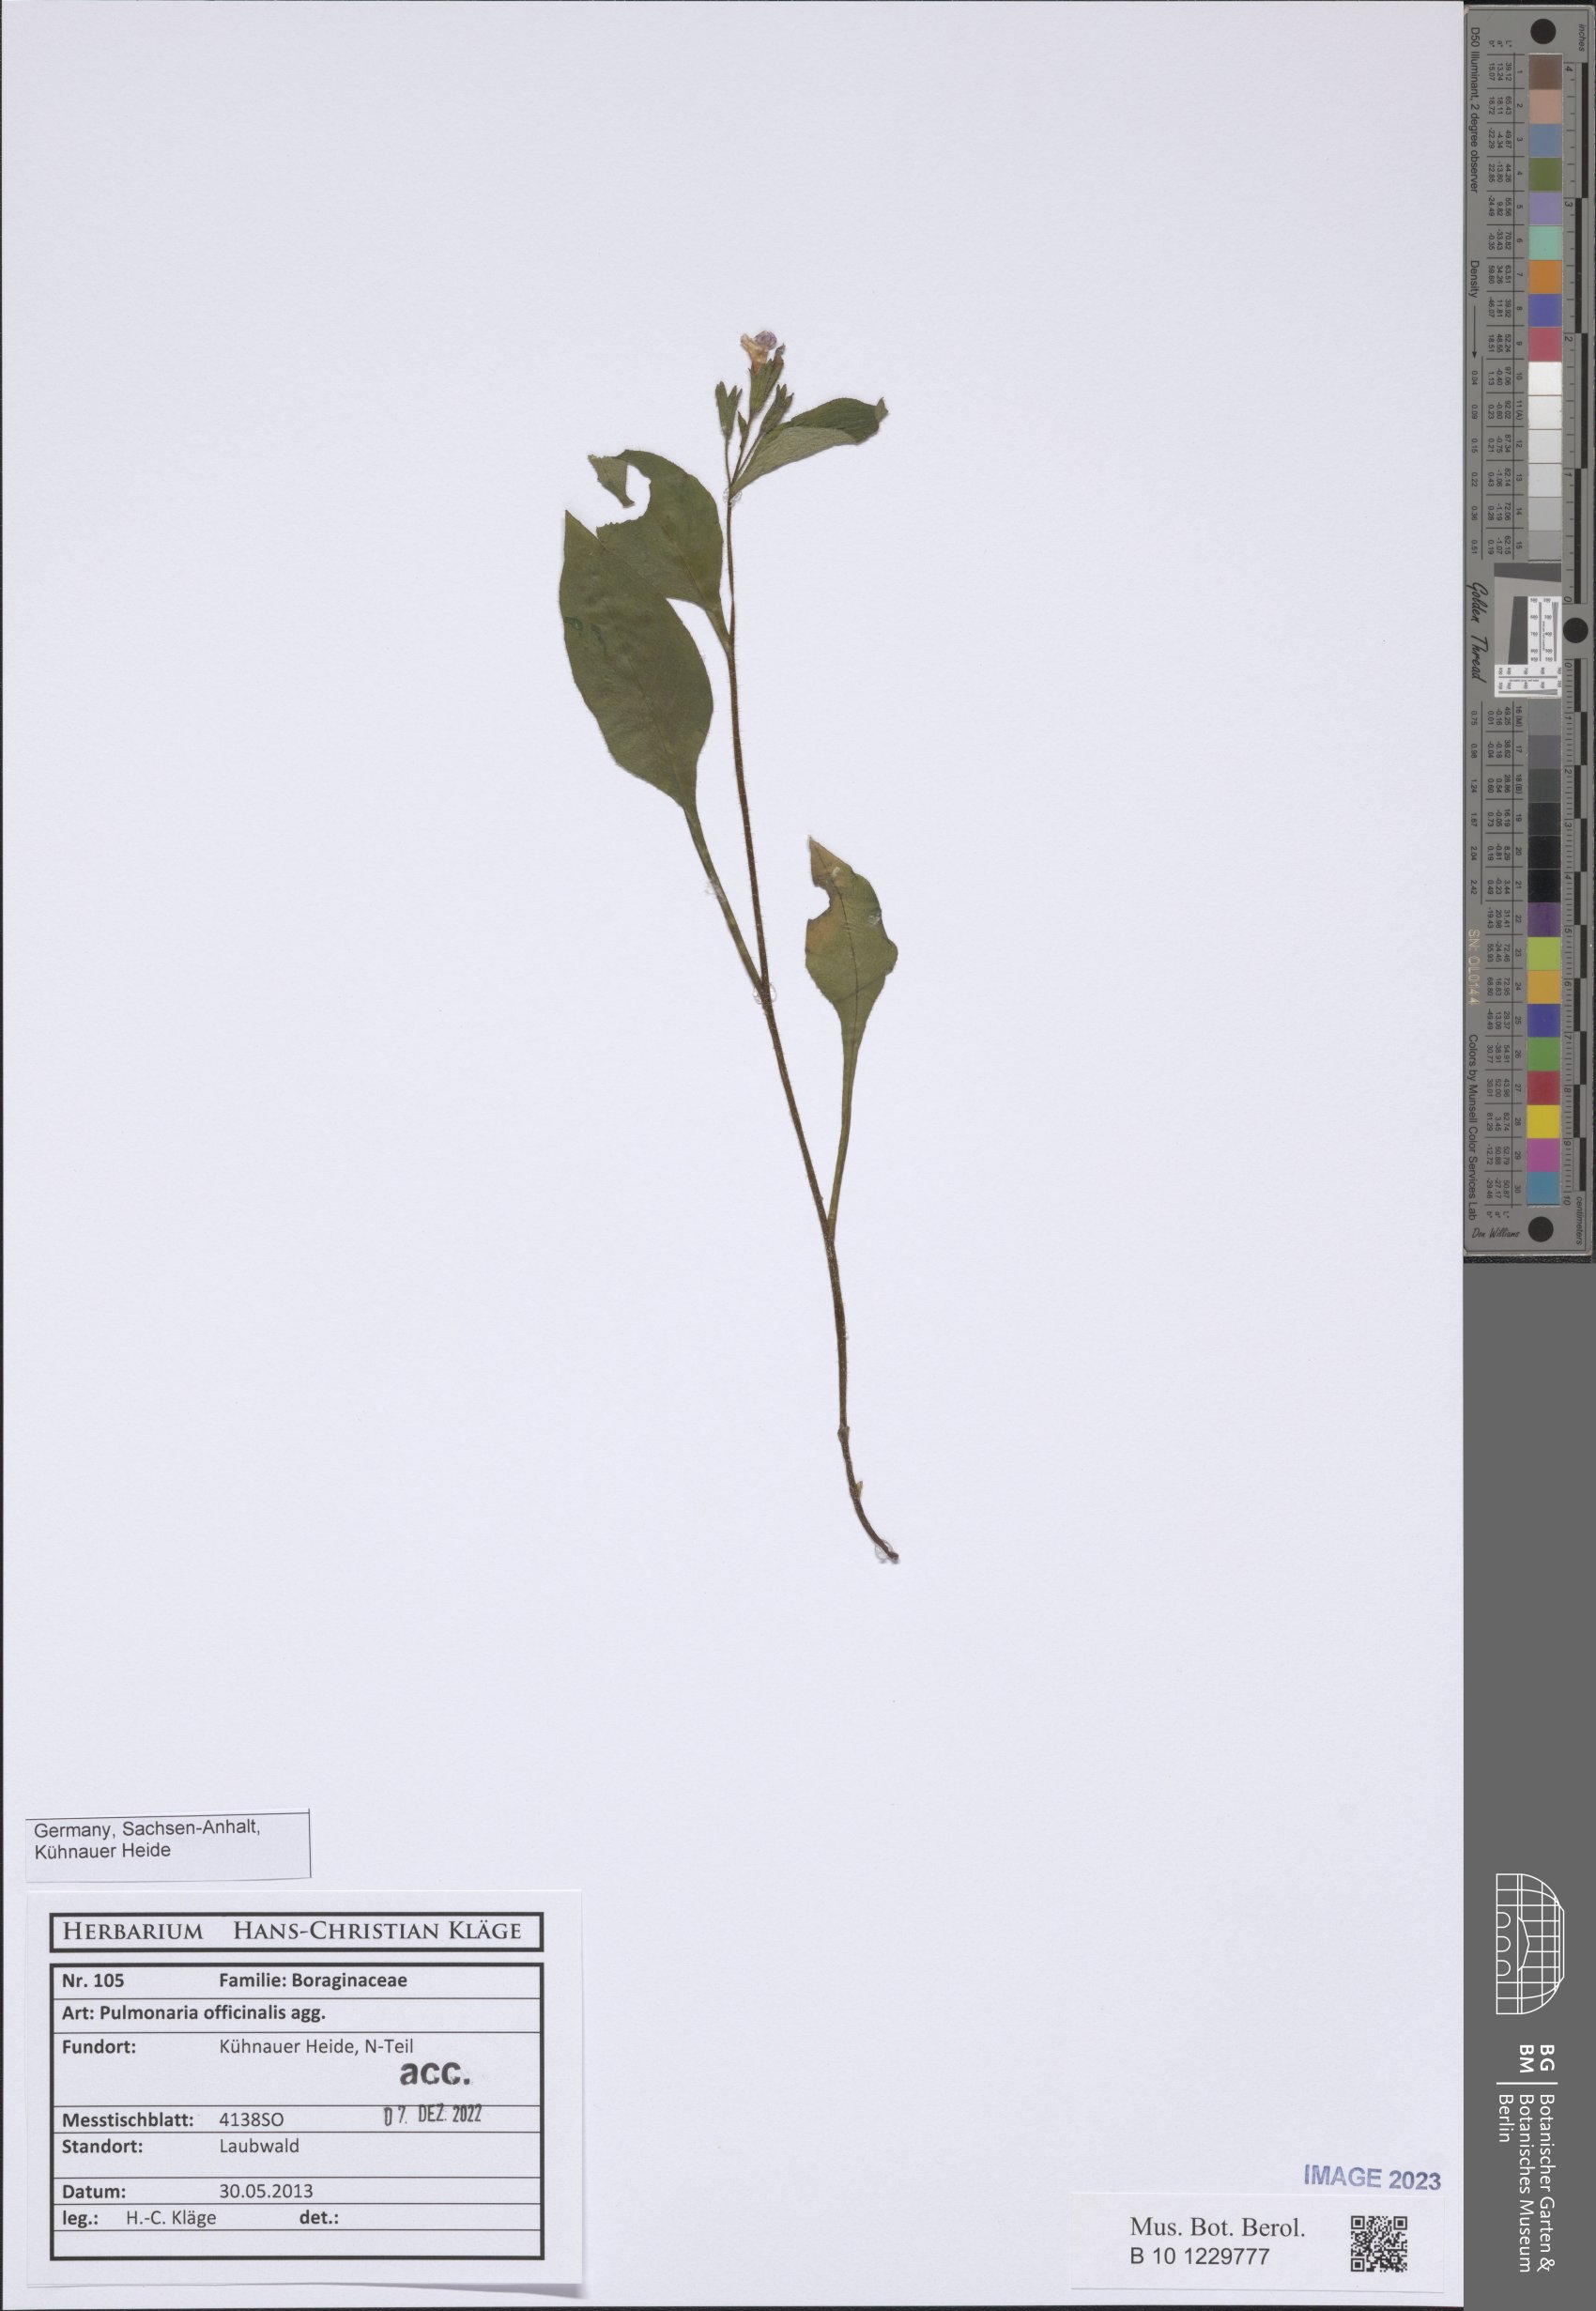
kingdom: Plantae
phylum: Tracheophyta
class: Magnoliopsida
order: Boraginales
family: Boraginaceae
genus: Pulmonaria
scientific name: Pulmonaria officinalis
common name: Lungwort
